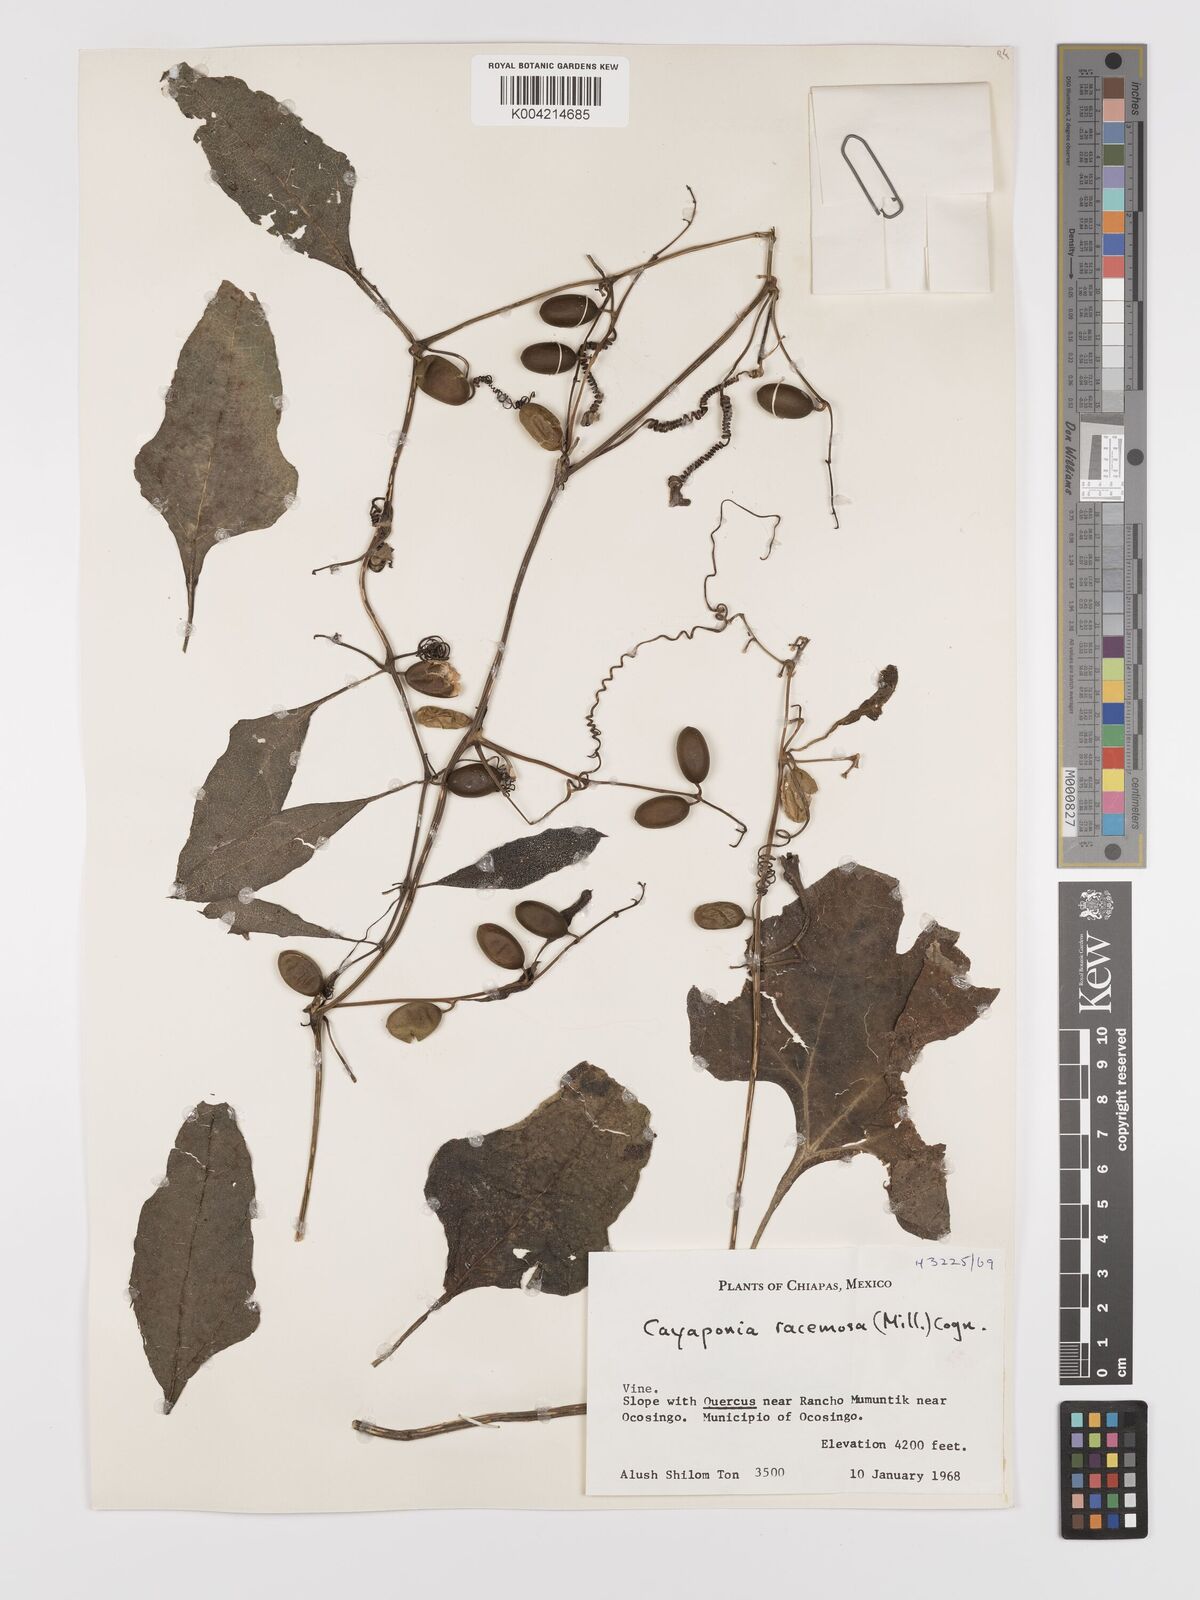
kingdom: Plantae
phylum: Tracheophyta
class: Magnoliopsida
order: Cucurbitales
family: Cucurbitaceae
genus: Cayaponia
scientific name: Cayaponia racemosa
